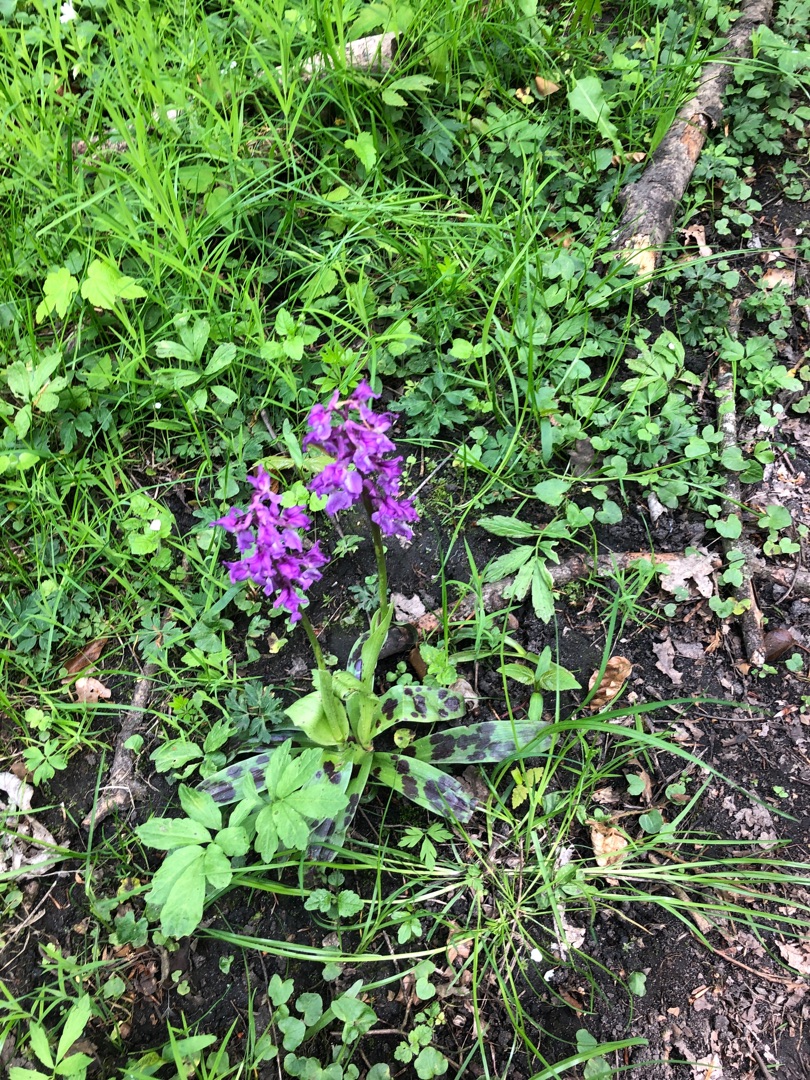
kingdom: Plantae
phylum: Tracheophyta
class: Liliopsida
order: Asparagales
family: Orchidaceae
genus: Orchis
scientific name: Orchis mascula
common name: Tyndakset gøgeurt
